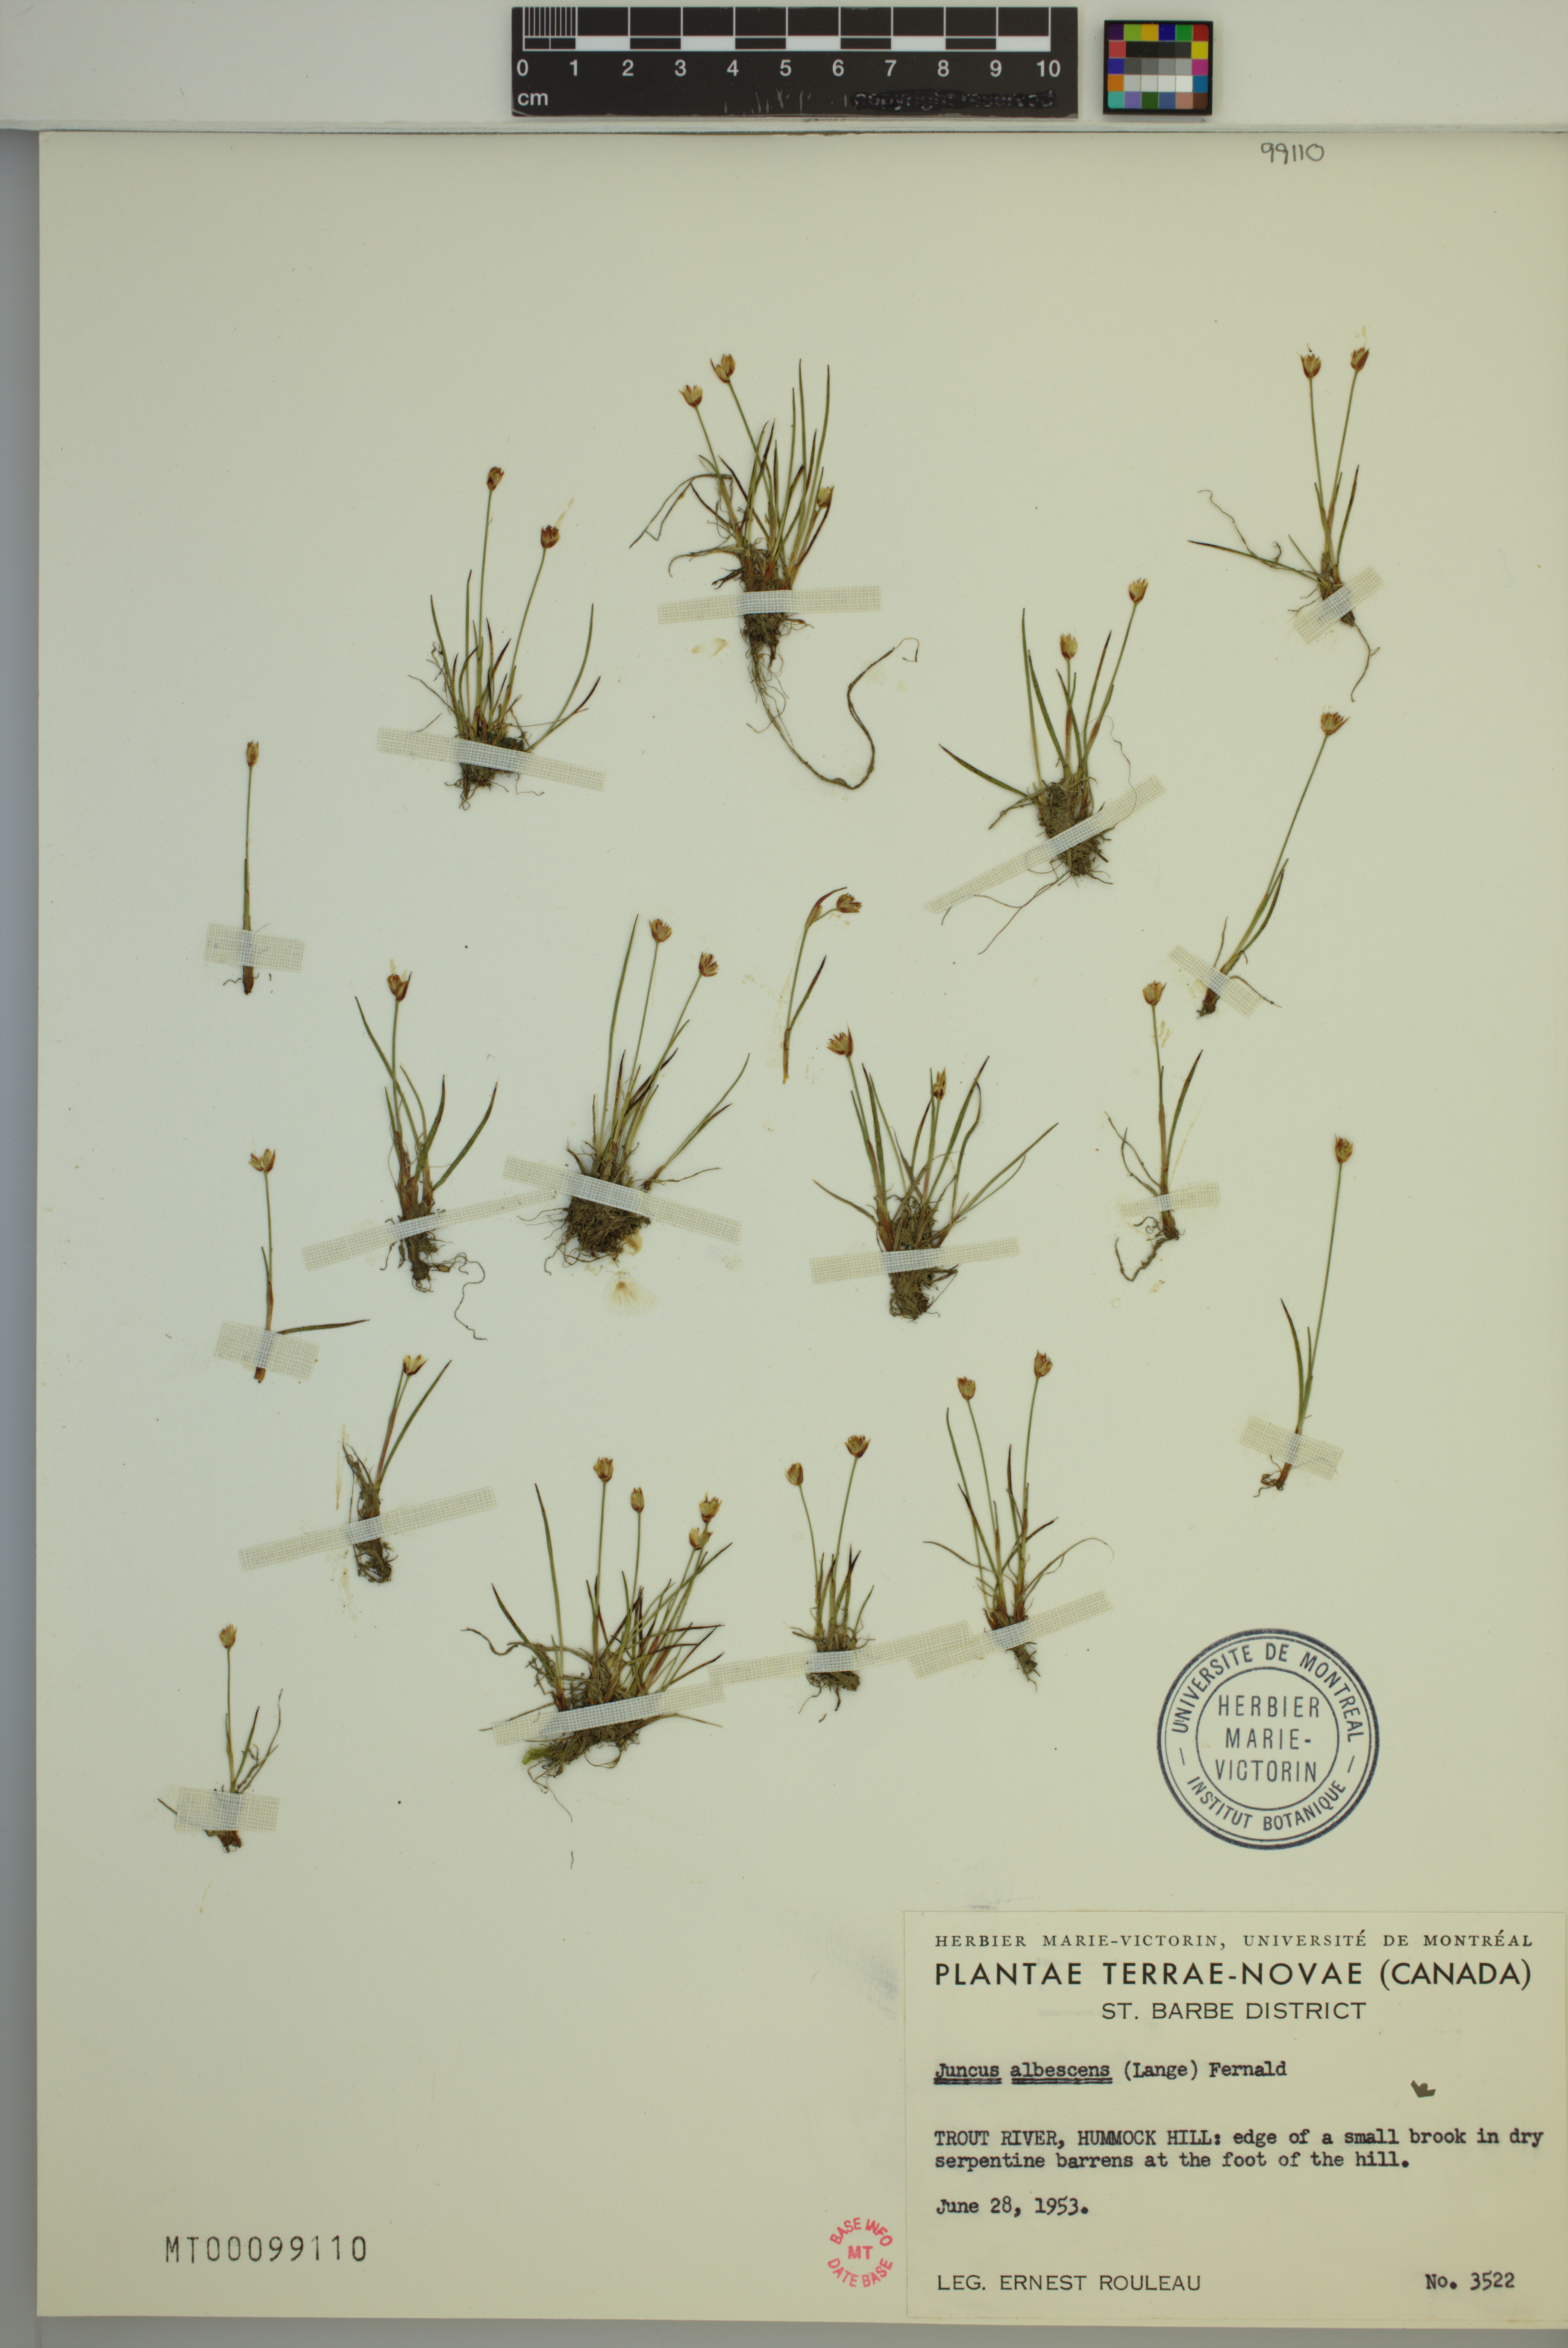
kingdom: Plantae
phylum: Tracheophyta
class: Liliopsida
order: Poales
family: Juncaceae
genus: Juncus
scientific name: Juncus albescens
